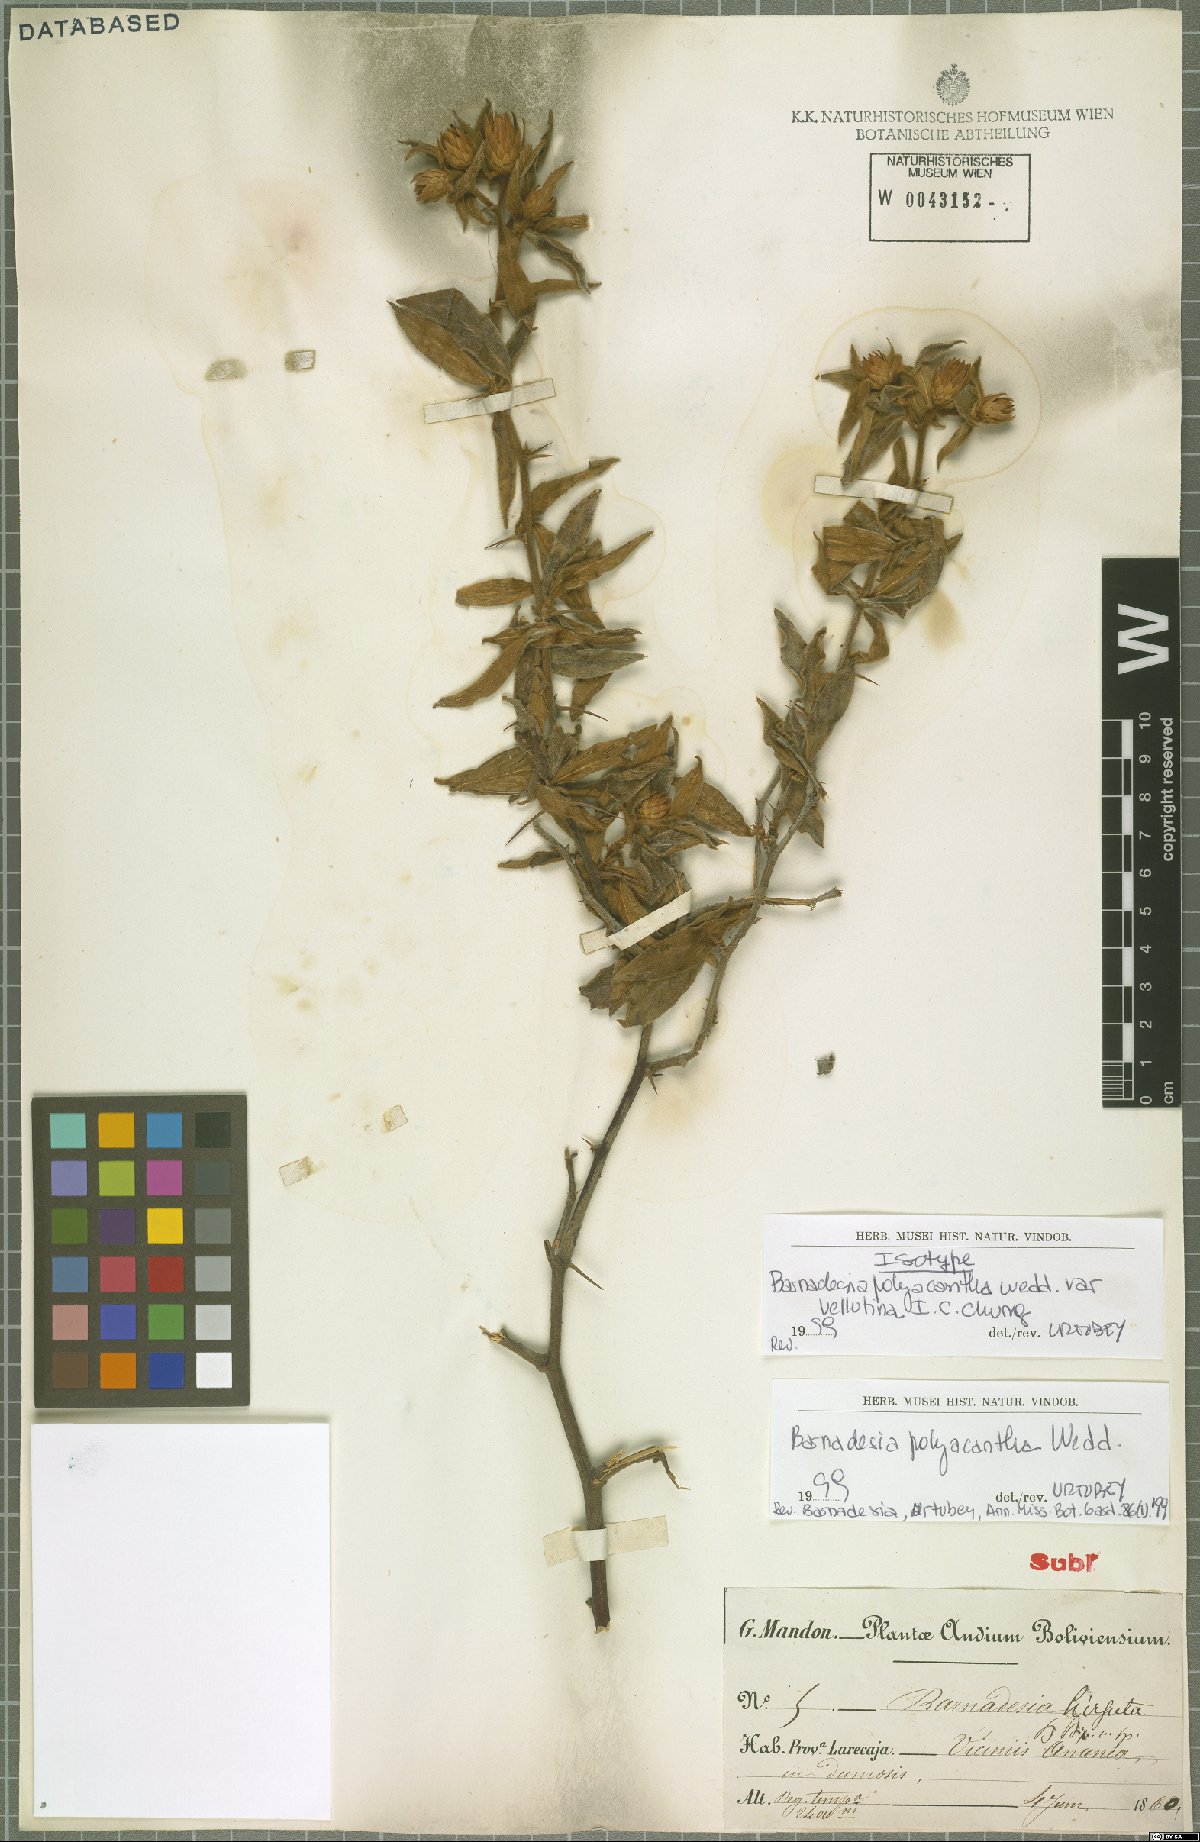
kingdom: Plantae
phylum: Tracheophyta
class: Magnoliopsida
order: Asterales
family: Asteraceae
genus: Barnadesia
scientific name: Barnadesia polyacantha
